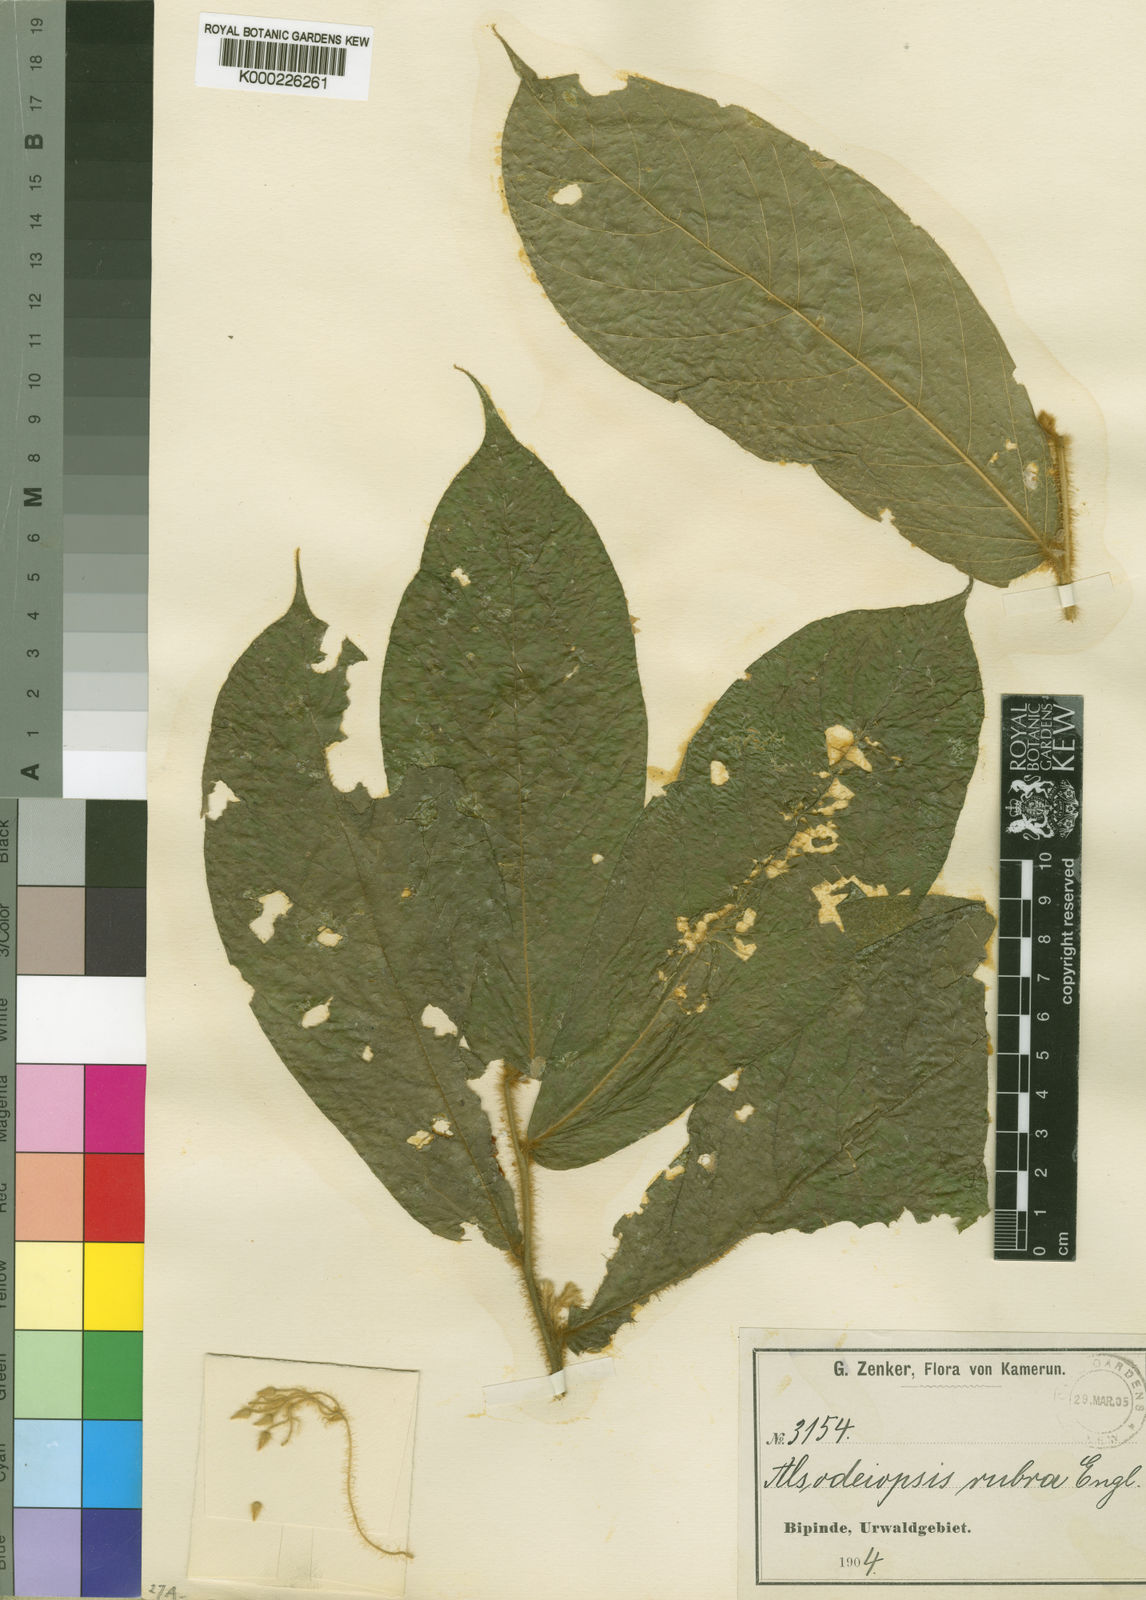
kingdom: Plantae
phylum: Tracheophyta
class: Magnoliopsida
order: Icacinales
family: Icacinaceae
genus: Alsodeiopsis
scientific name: Alsodeiopsis rubra
